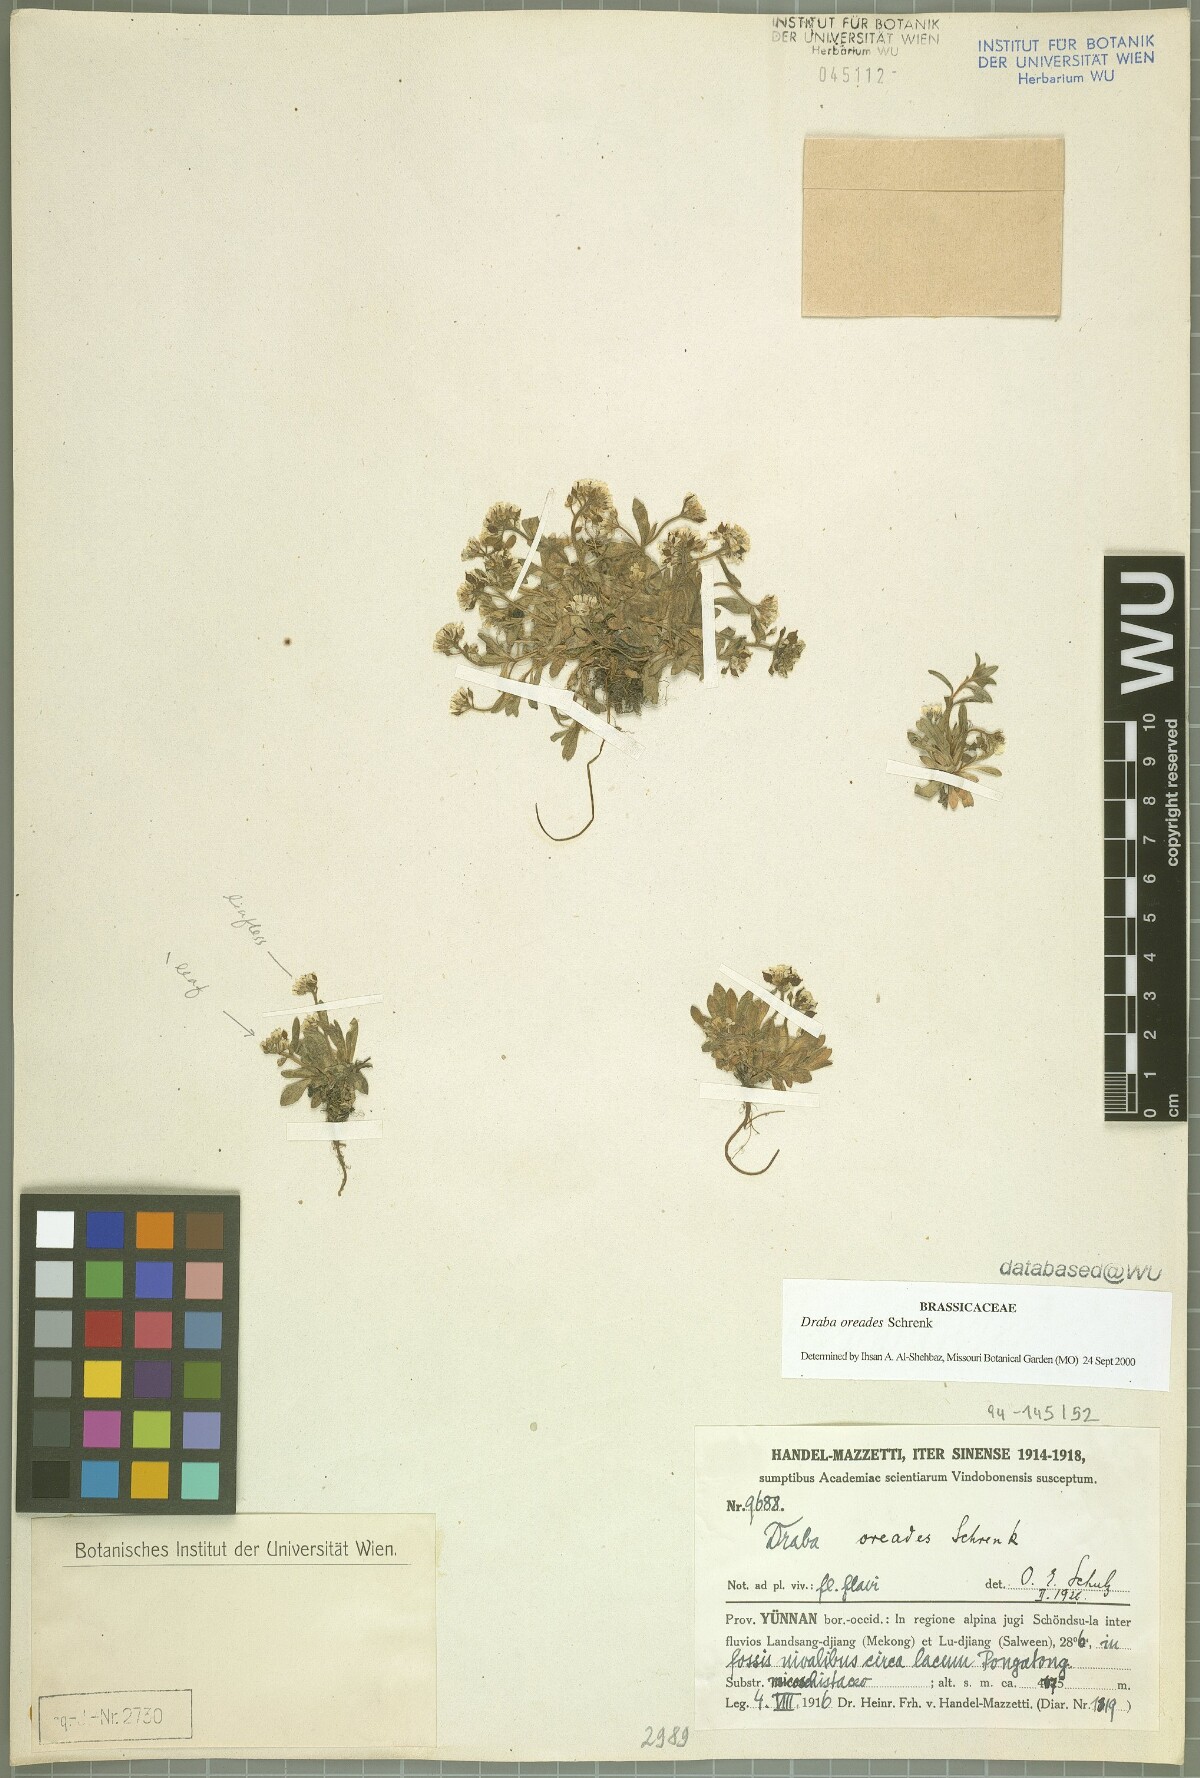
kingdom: Plantae
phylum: Tracheophyta
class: Magnoliopsida
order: Brassicales
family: Brassicaceae
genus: Draba
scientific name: Draba oreades
